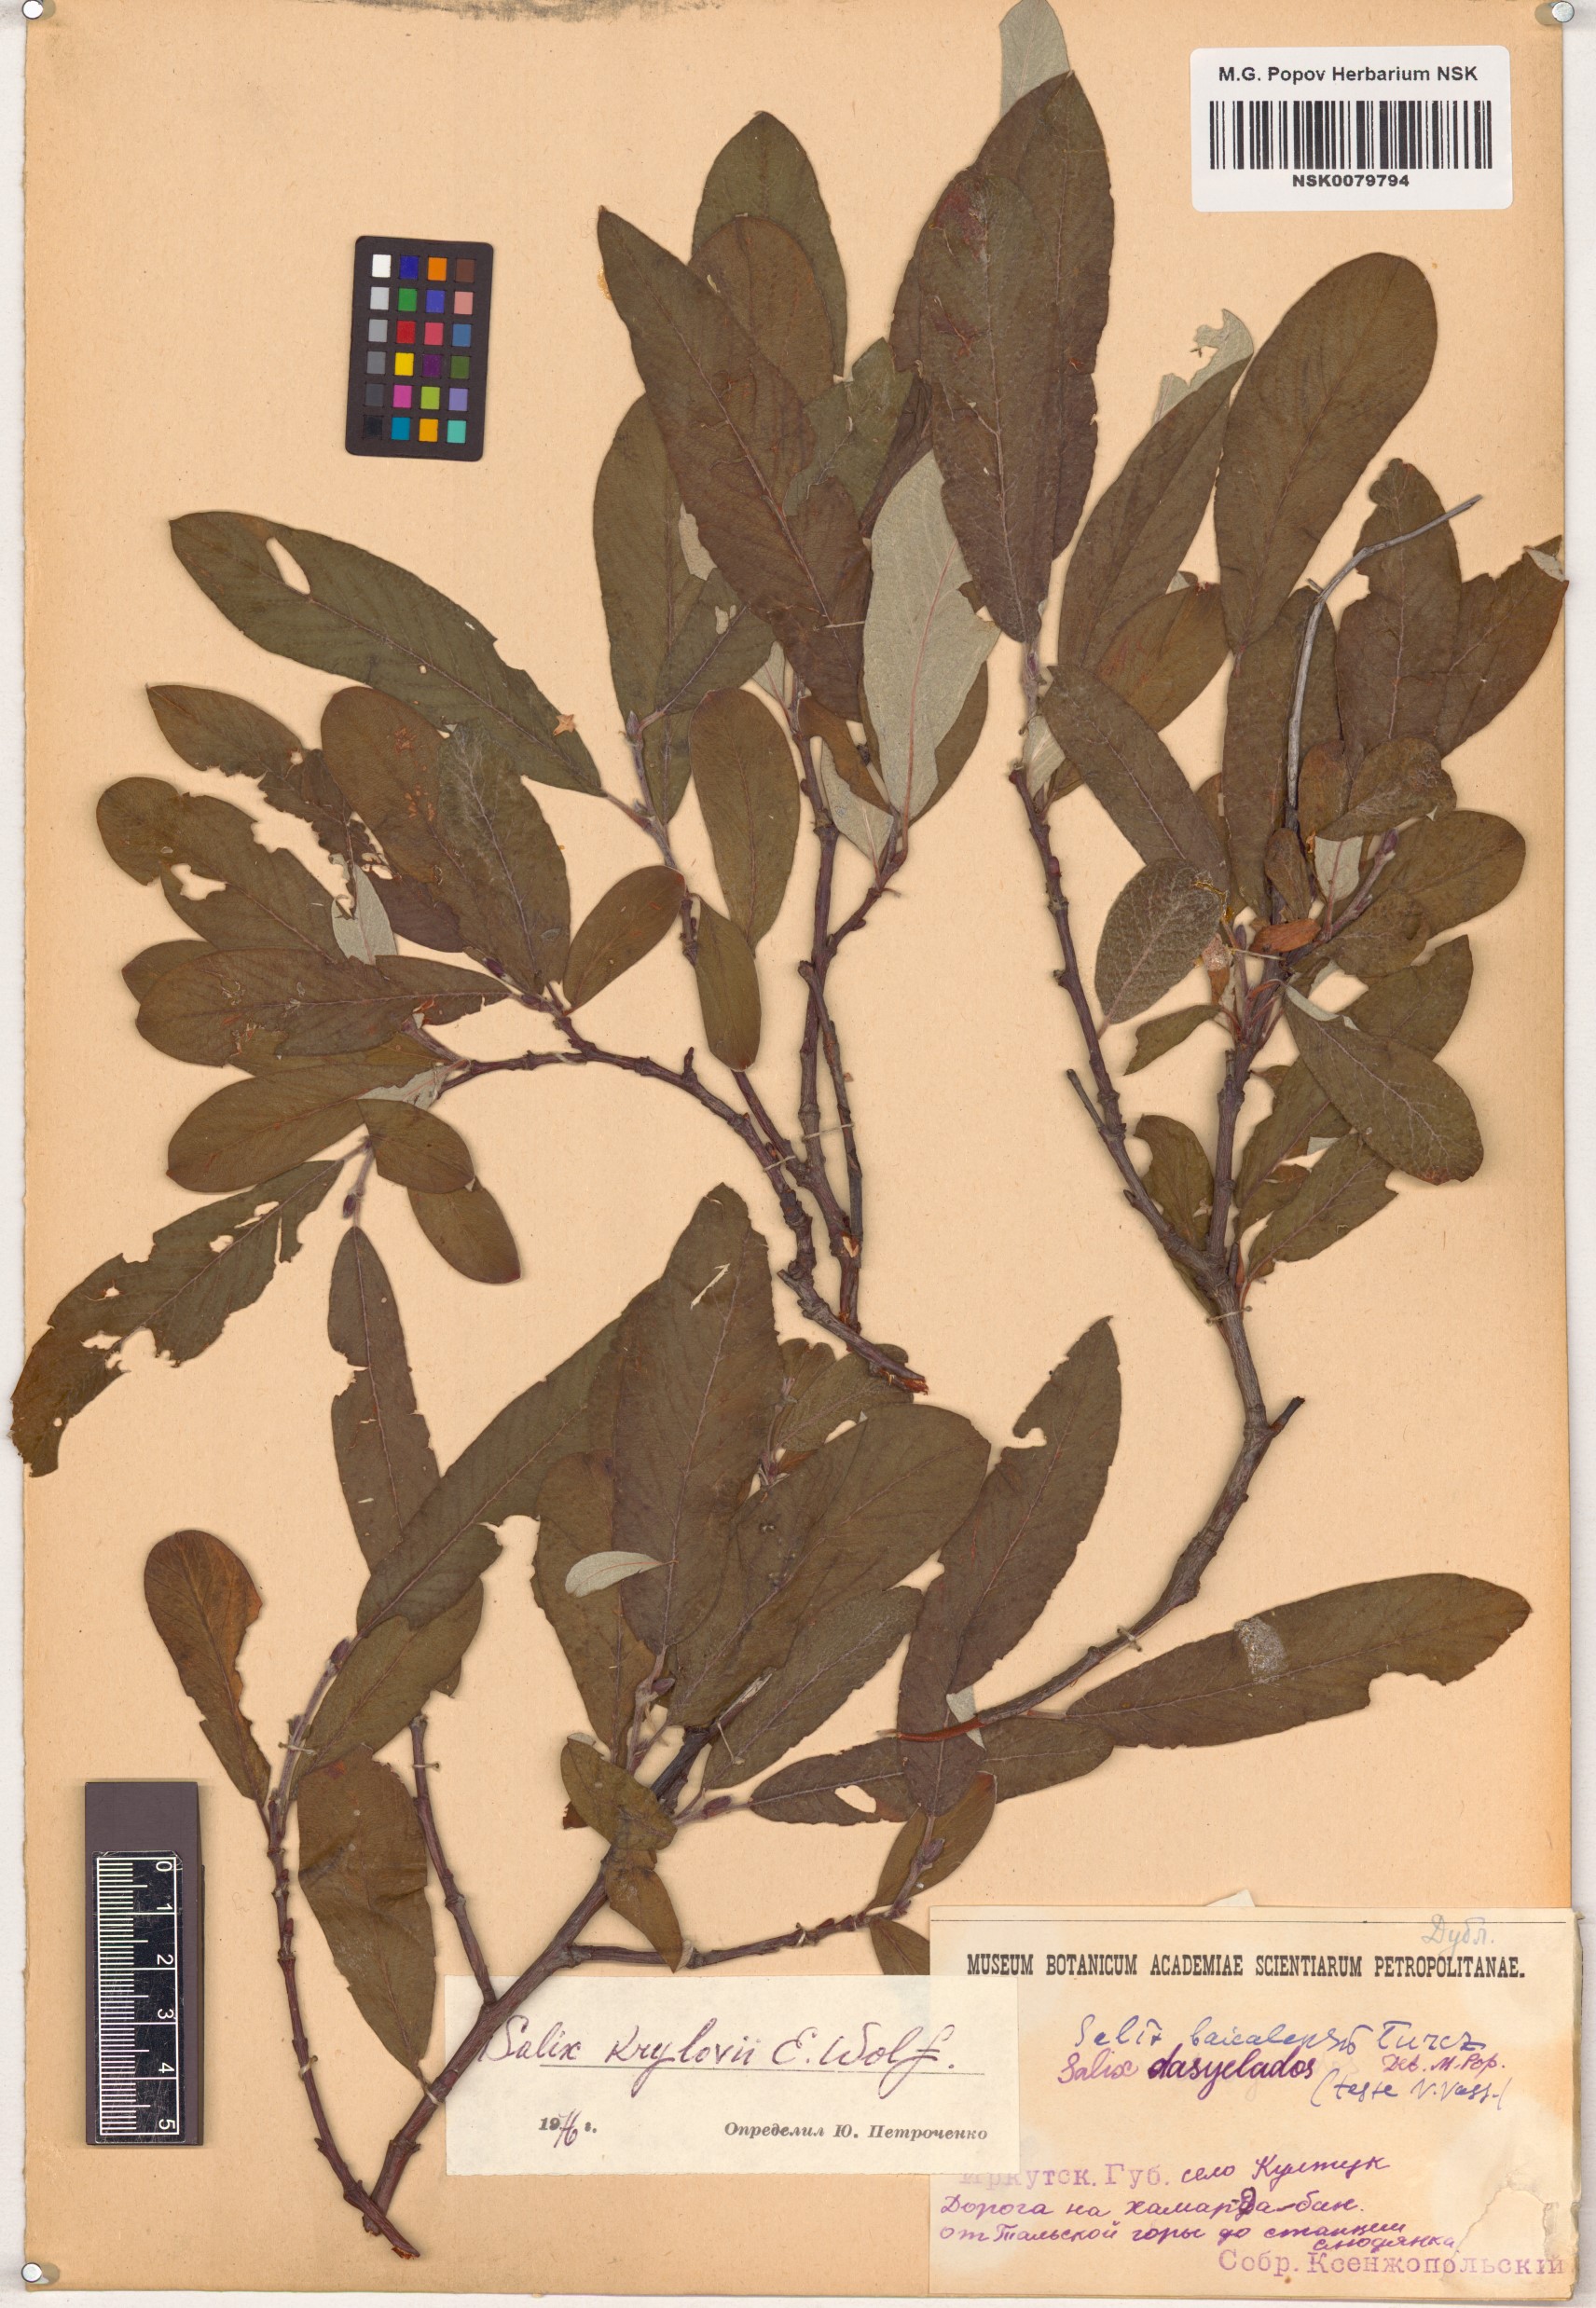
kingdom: Plantae
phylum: Tracheophyta
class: Magnoliopsida
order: Malpighiales
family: Salicaceae
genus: Salix
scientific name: Salix krylovii
